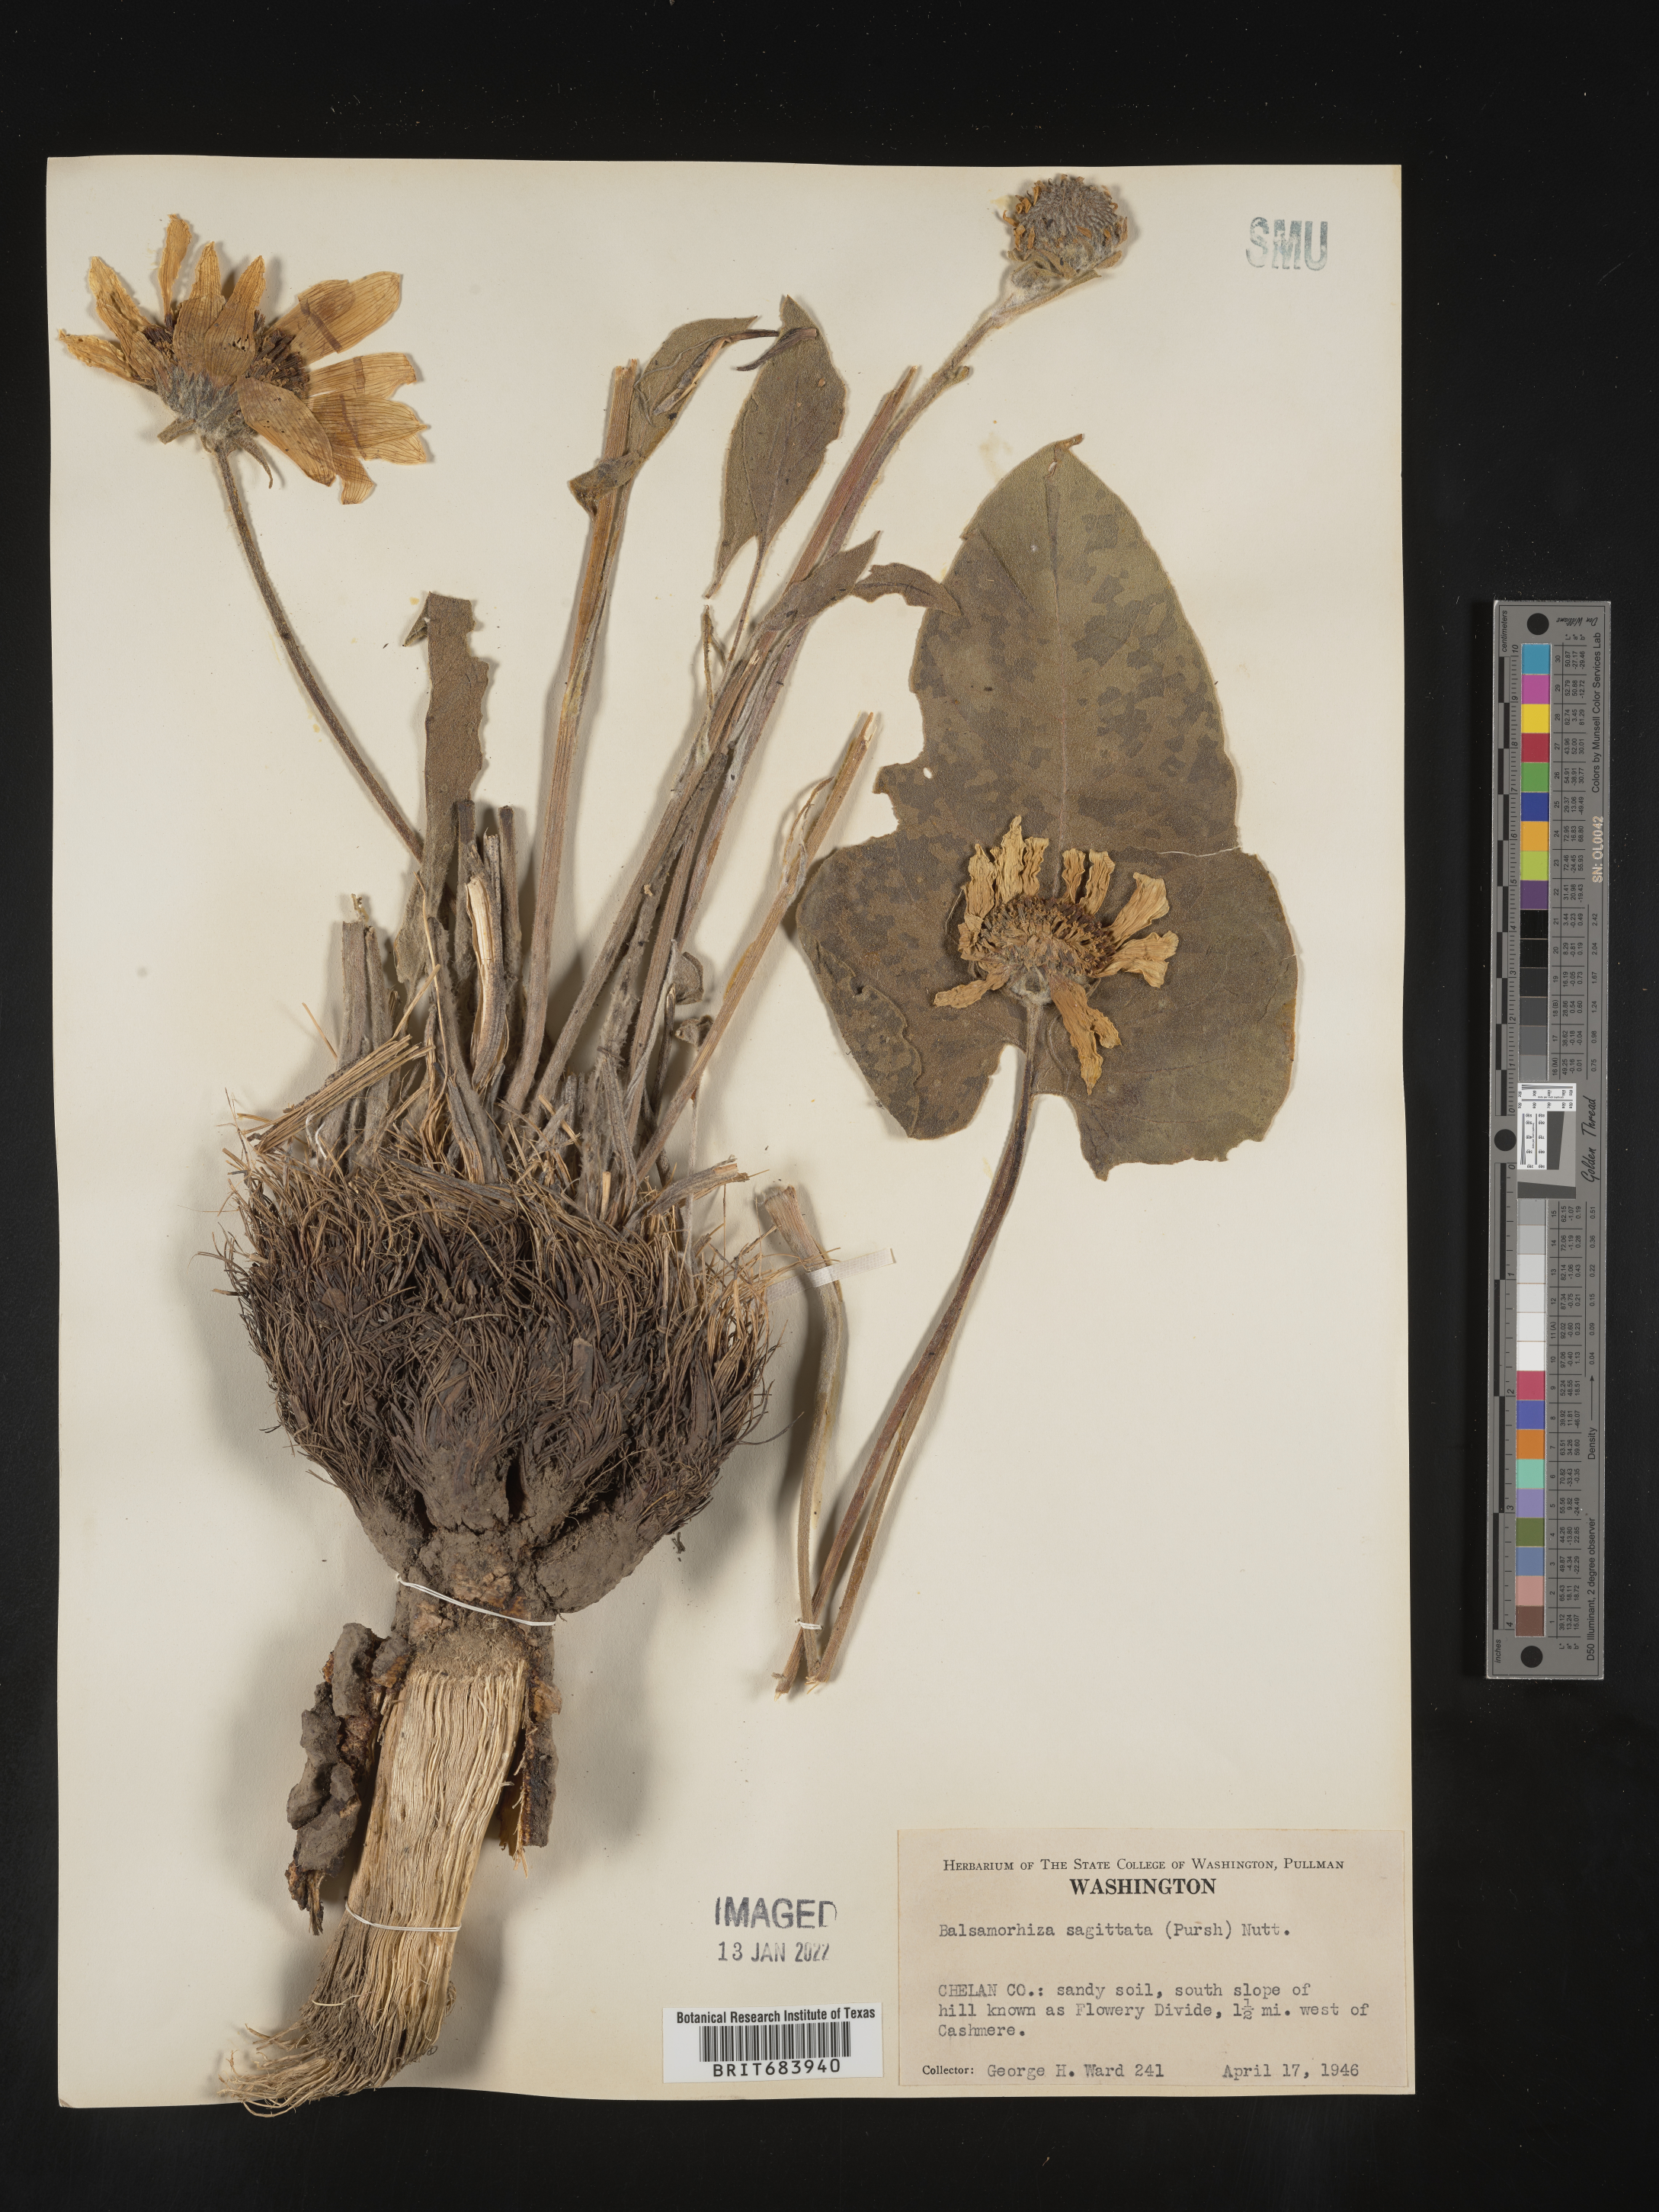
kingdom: Plantae
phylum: Tracheophyta
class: Magnoliopsida
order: Asterales
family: Asteraceae
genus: Wyethia
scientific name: Wyethia sagittata
